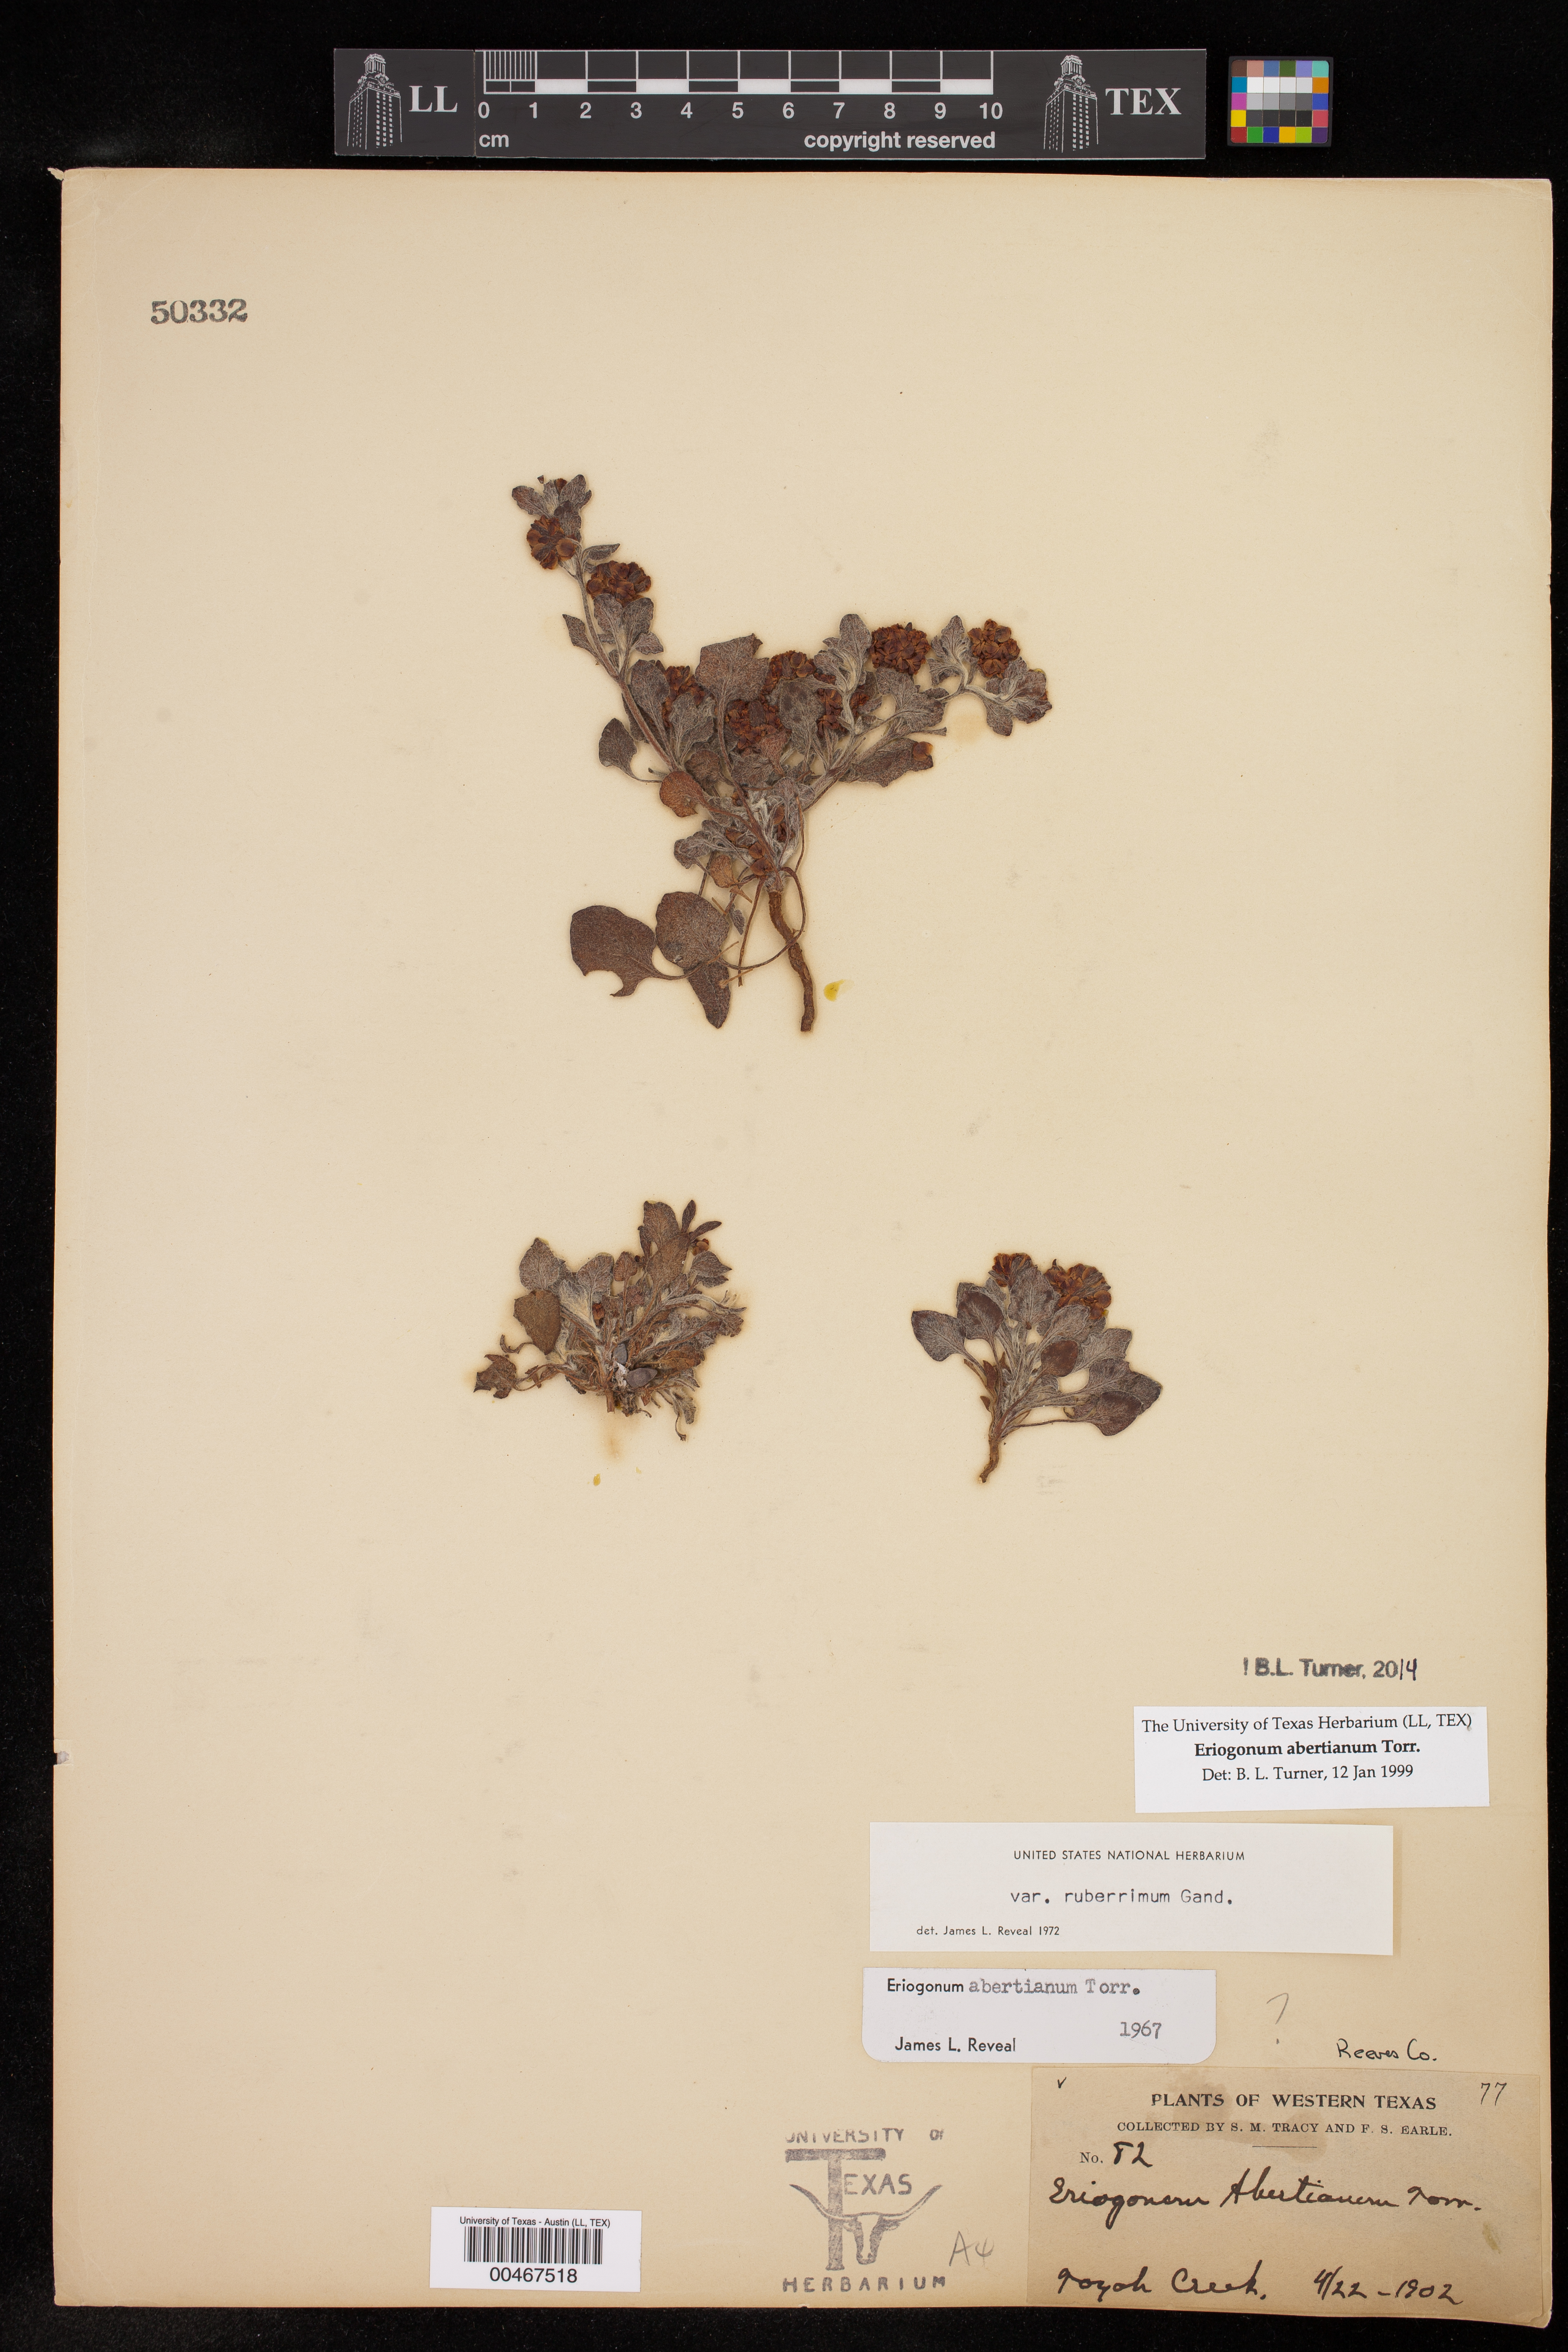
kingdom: Plantae
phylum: Tracheophyta
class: Magnoliopsida
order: Caryophyllales
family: Polygonaceae
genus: Eriogonum
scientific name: Eriogonum abertianum
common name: Abert's wild buckwheat
